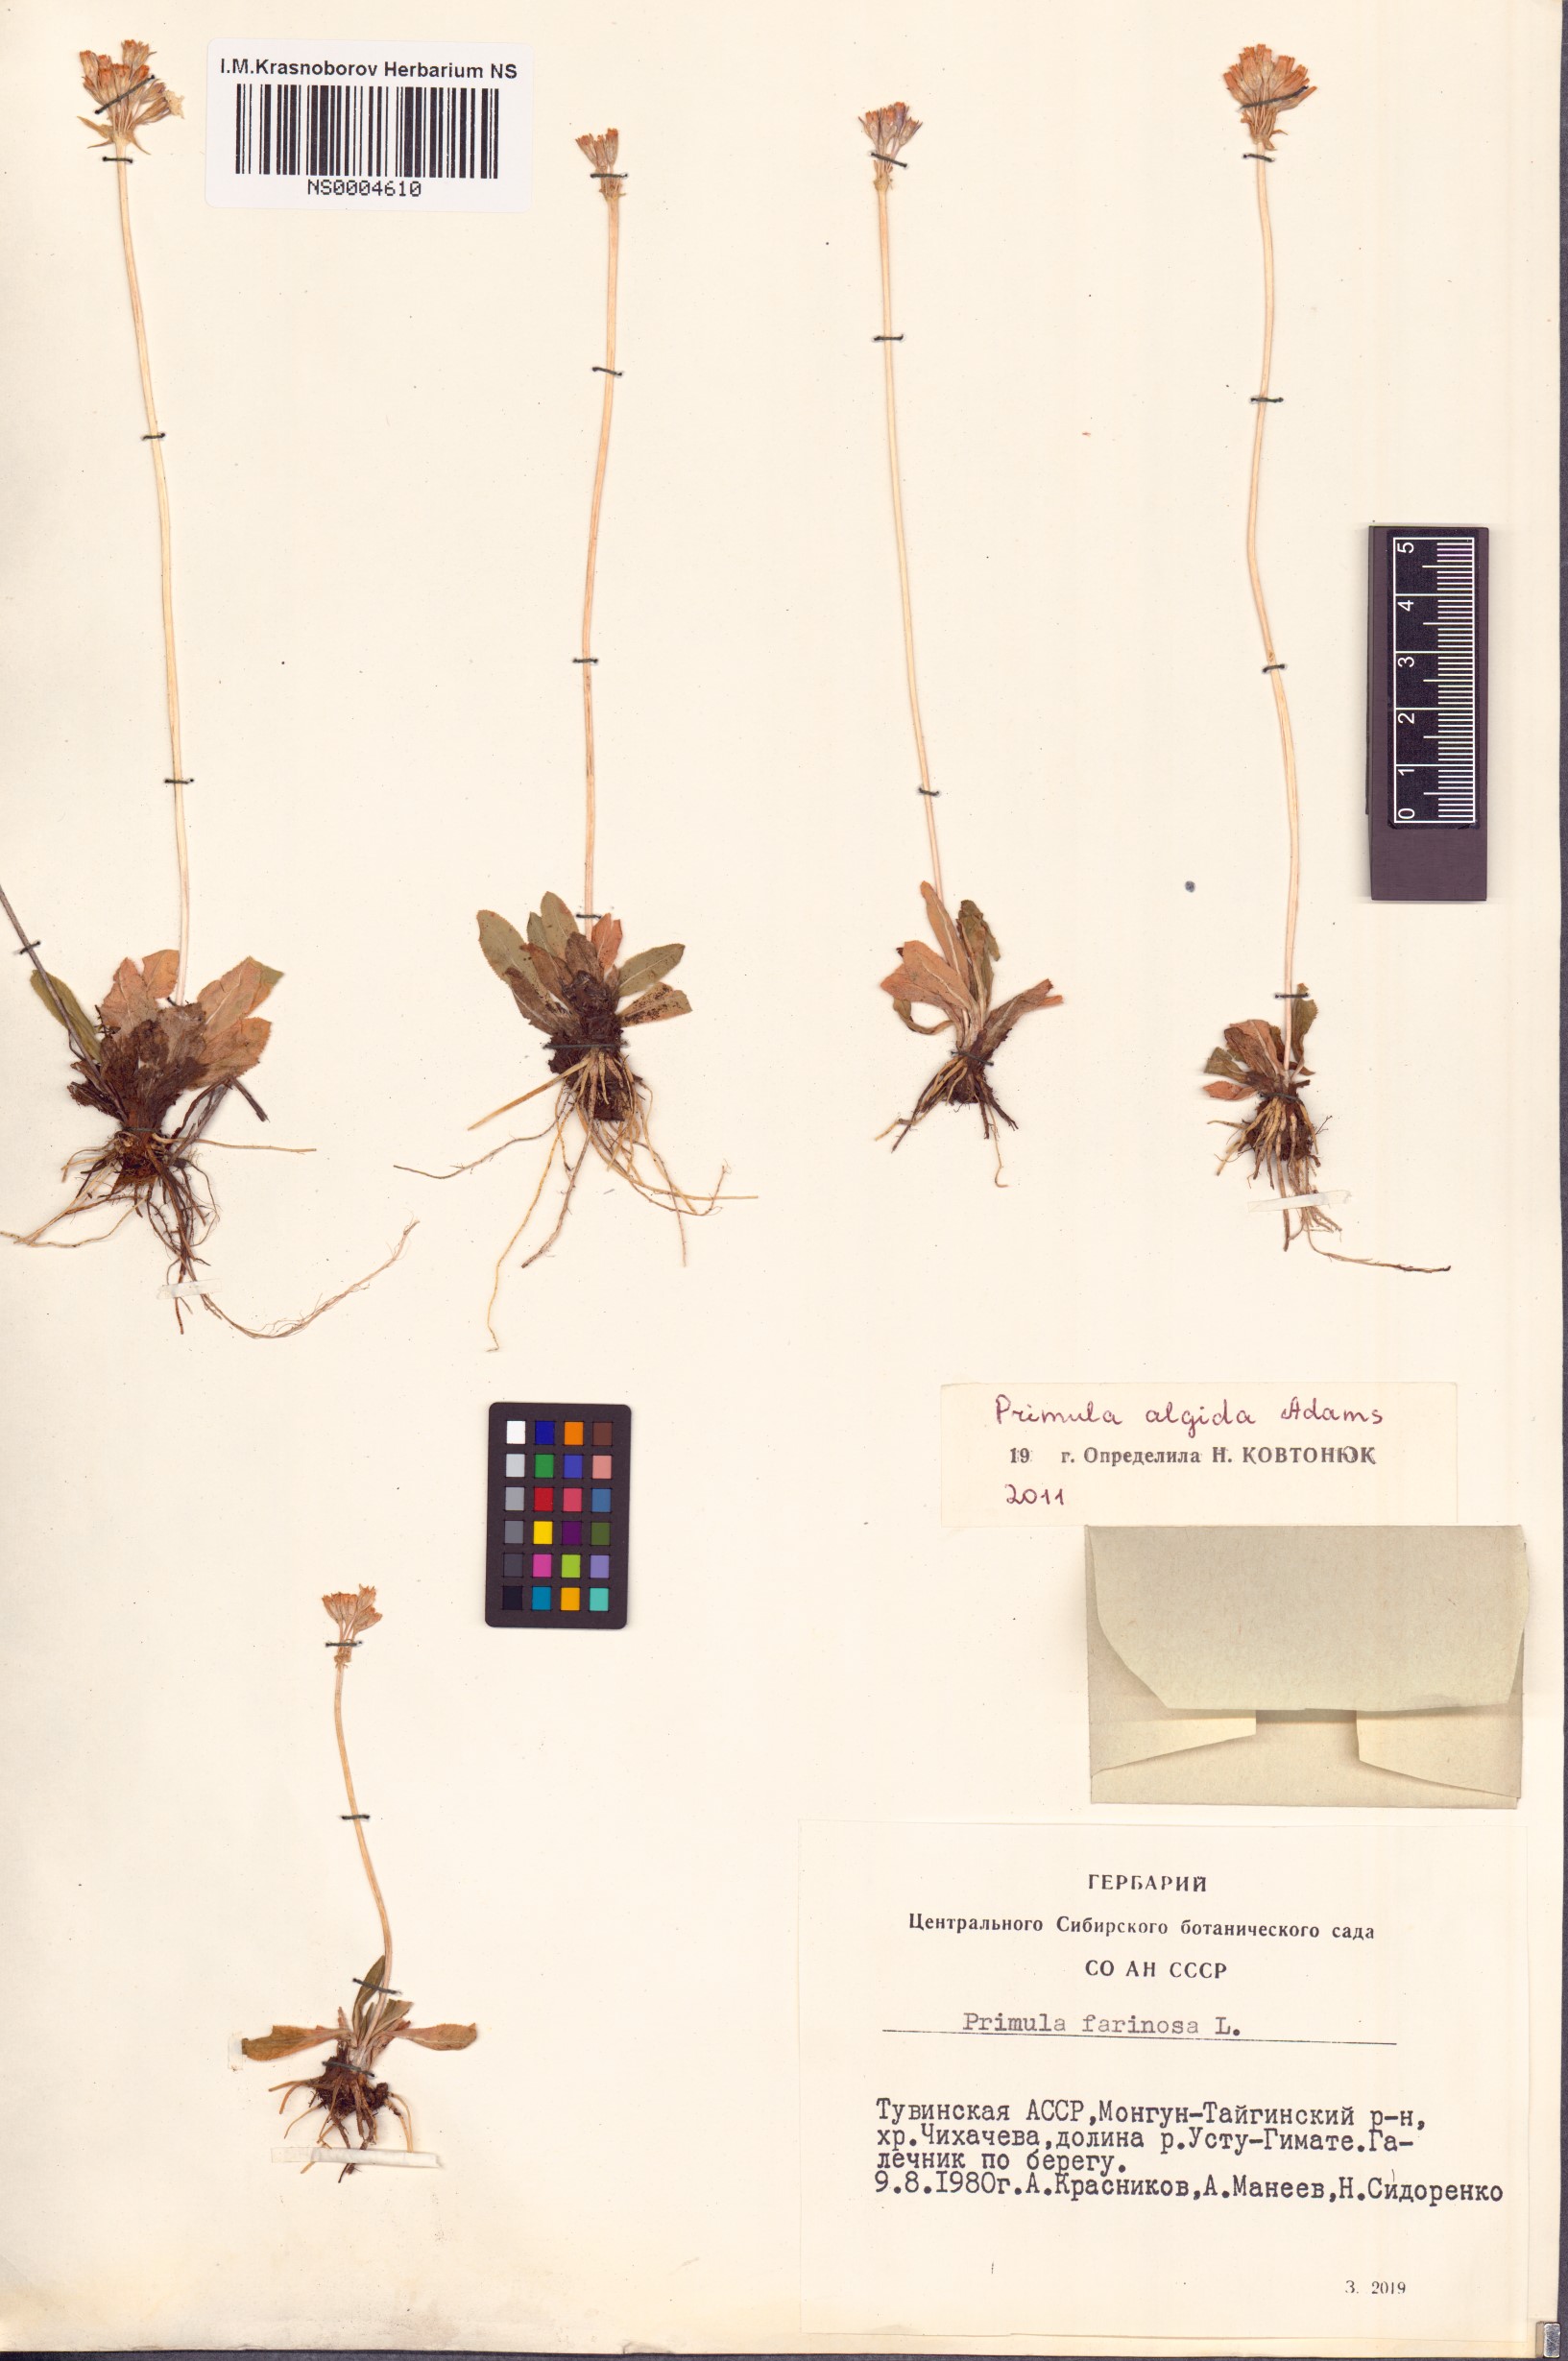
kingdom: Plantae
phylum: Tracheophyta
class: Magnoliopsida
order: Ericales
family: Primulaceae
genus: Primula
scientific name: Primula algida
